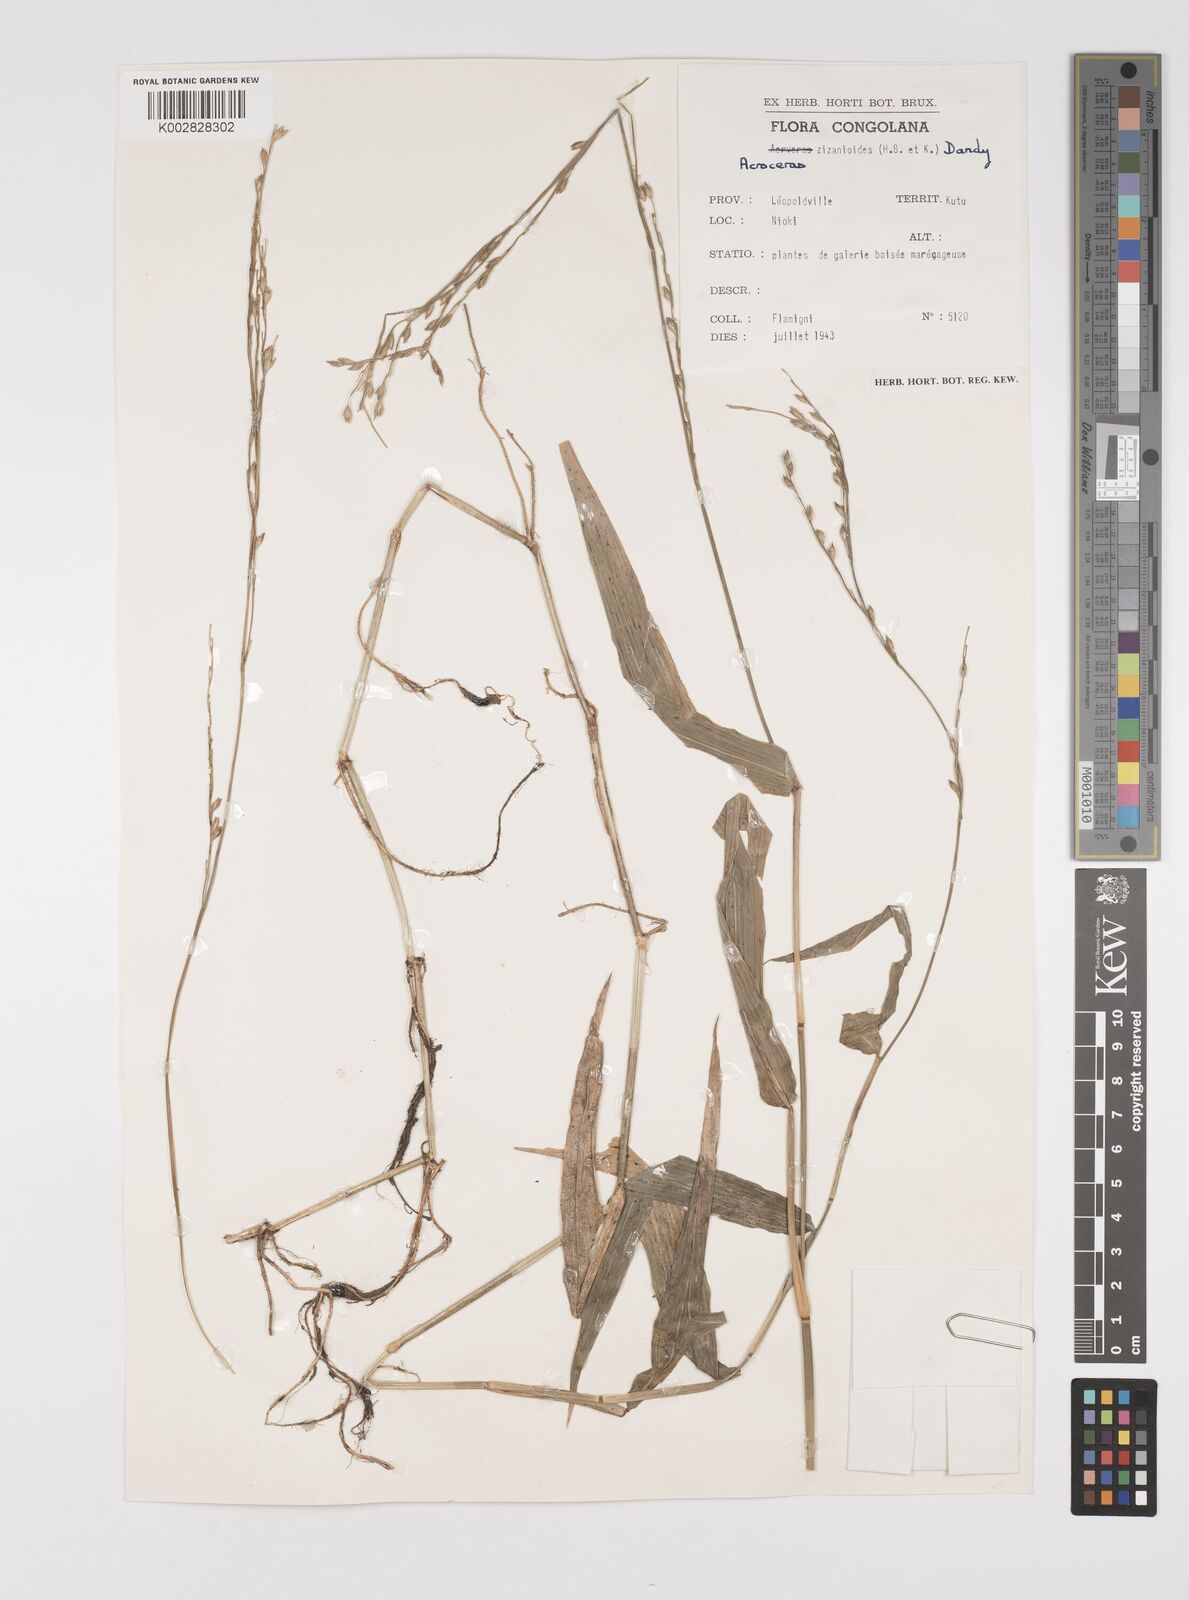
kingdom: Plantae
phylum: Tracheophyta
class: Liliopsida
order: Poales
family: Poaceae
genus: Acroceras
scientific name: Acroceras zizanioides
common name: Oat grass
